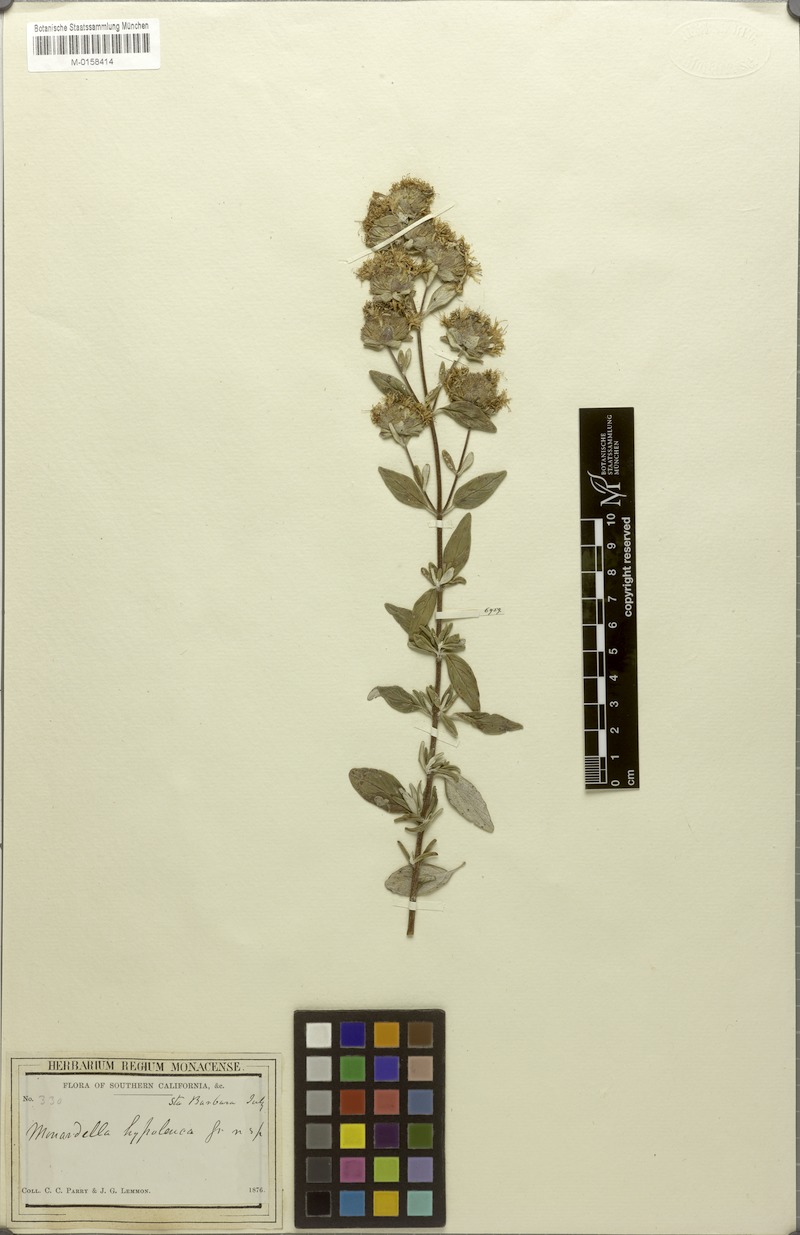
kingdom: Plantae
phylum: Tracheophyta
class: Magnoliopsida
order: Lamiales
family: Lamiaceae
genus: Monardella
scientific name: Monardella hypoleuca
